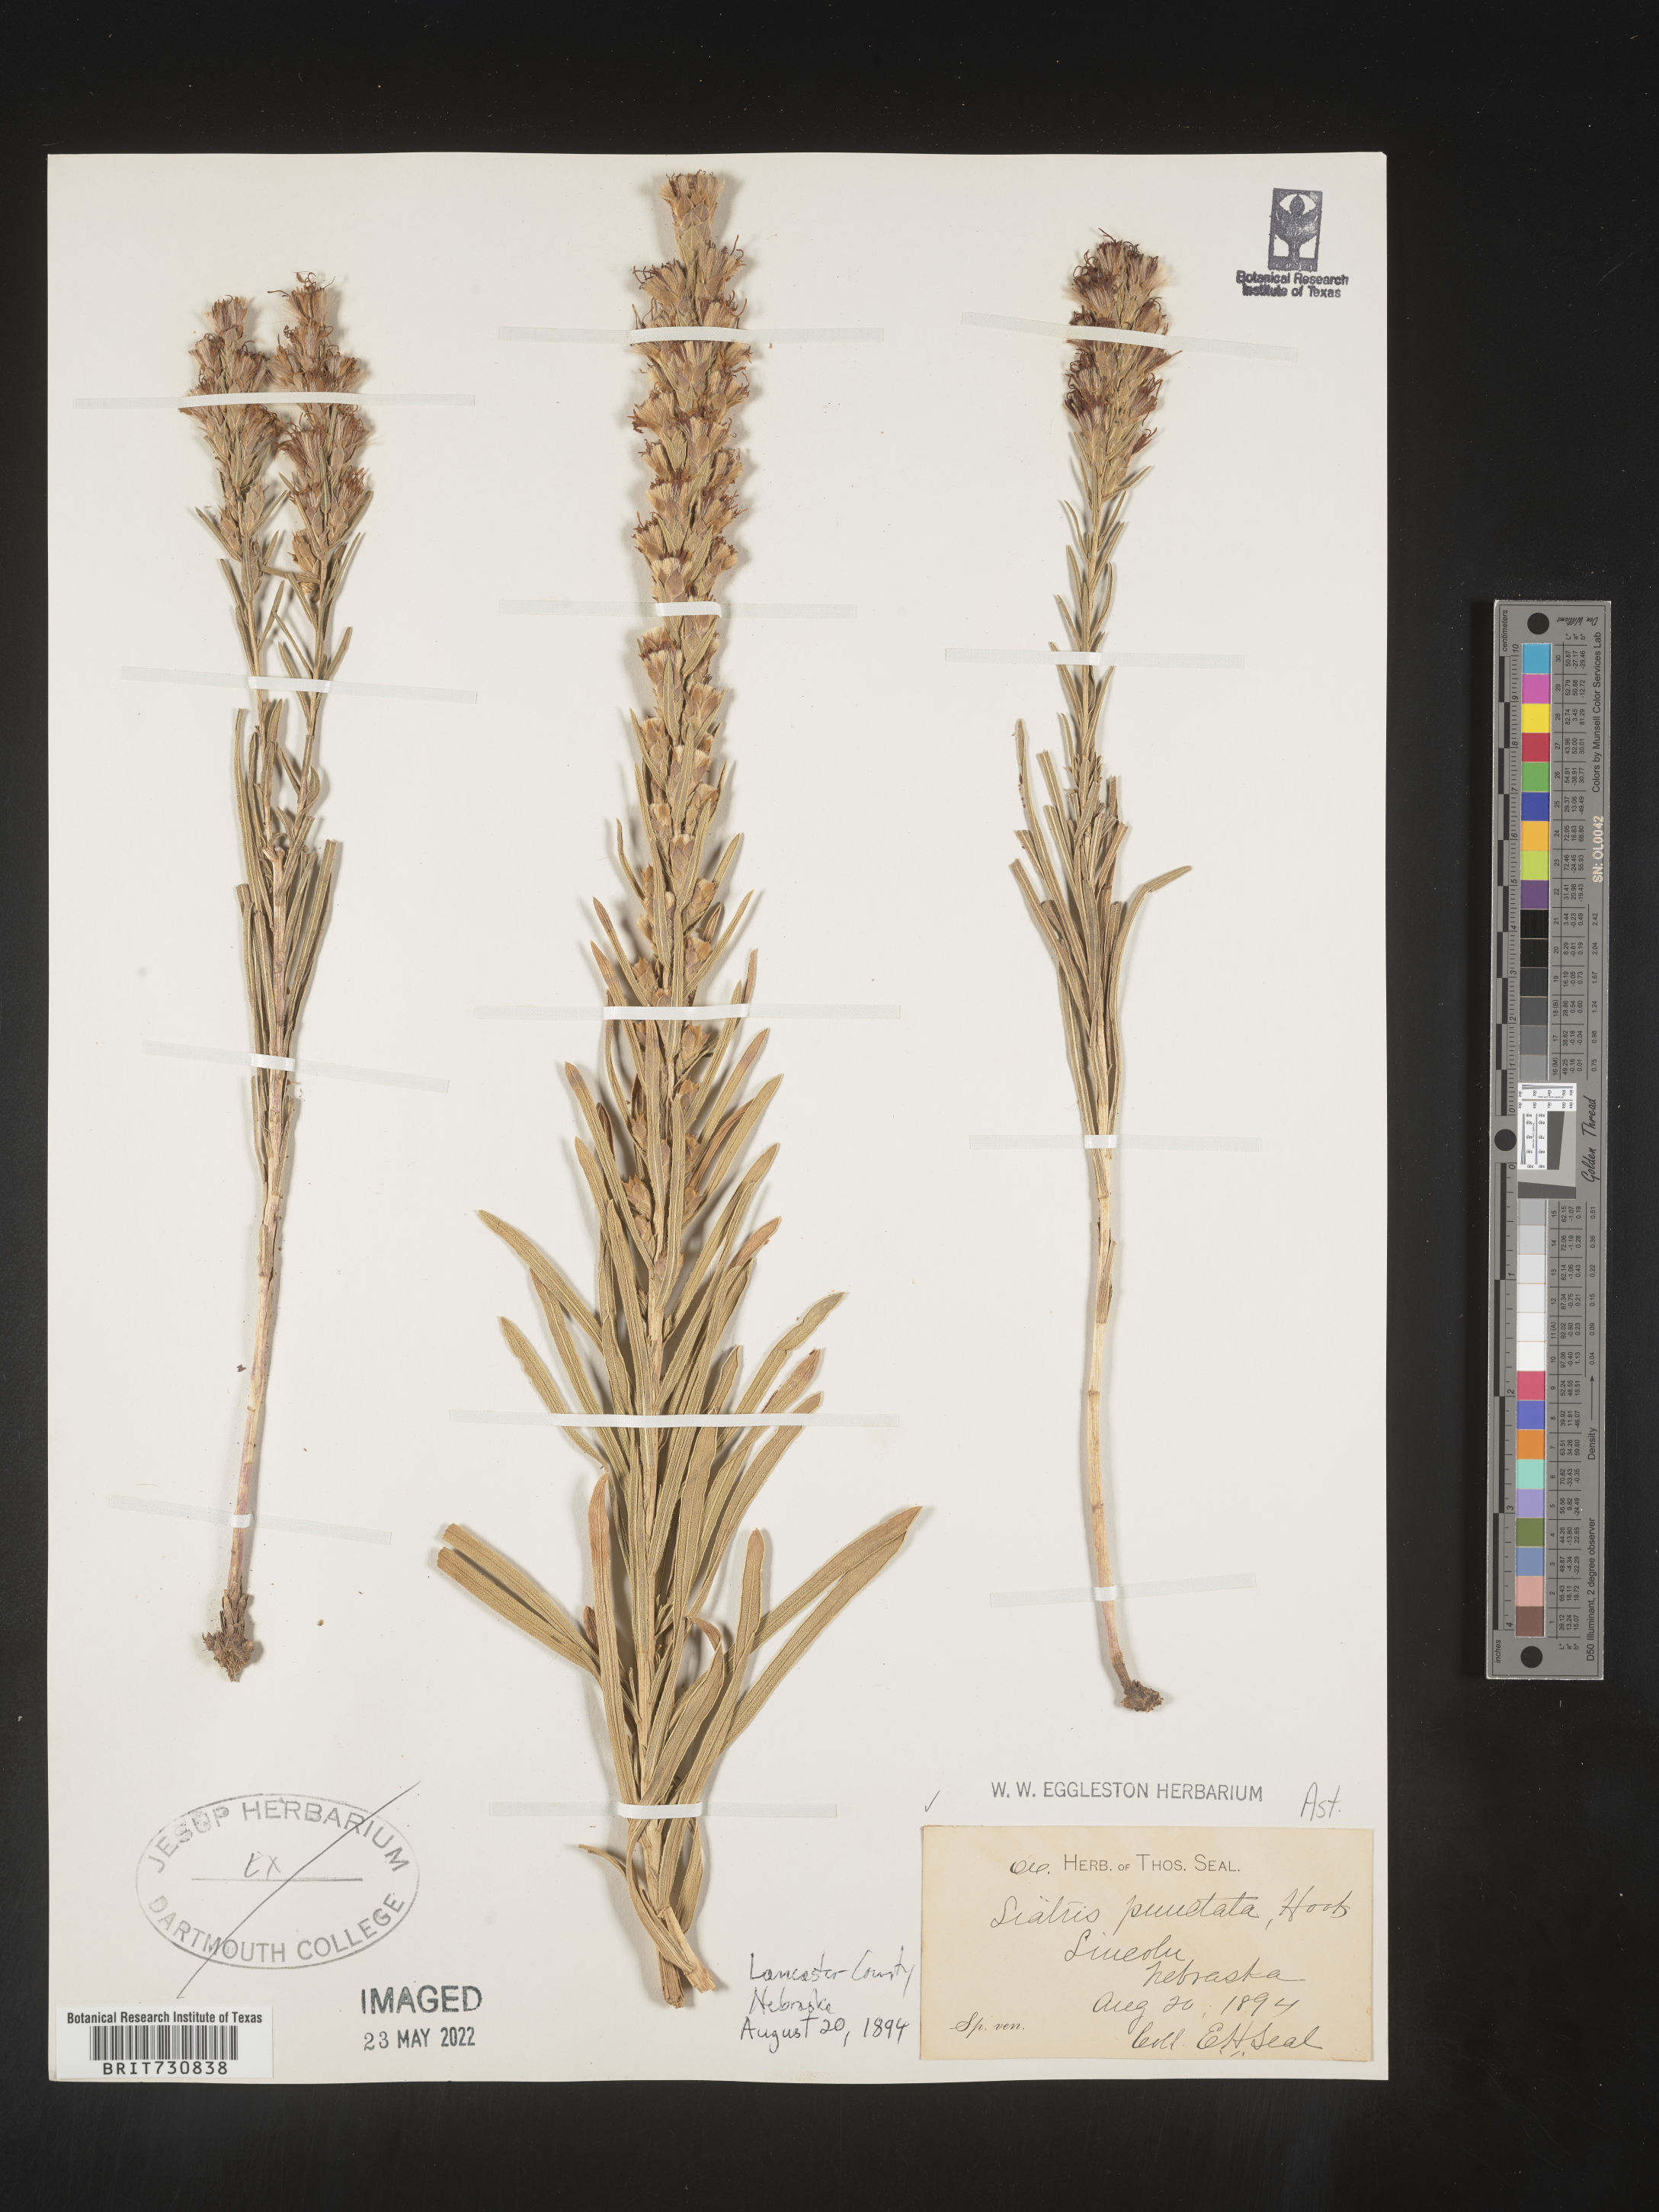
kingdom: Plantae
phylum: Tracheophyta
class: Magnoliopsida
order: Asterales
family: Asteraceae
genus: Liatris
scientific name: Liatris punctata
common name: Dotted gayfeather
